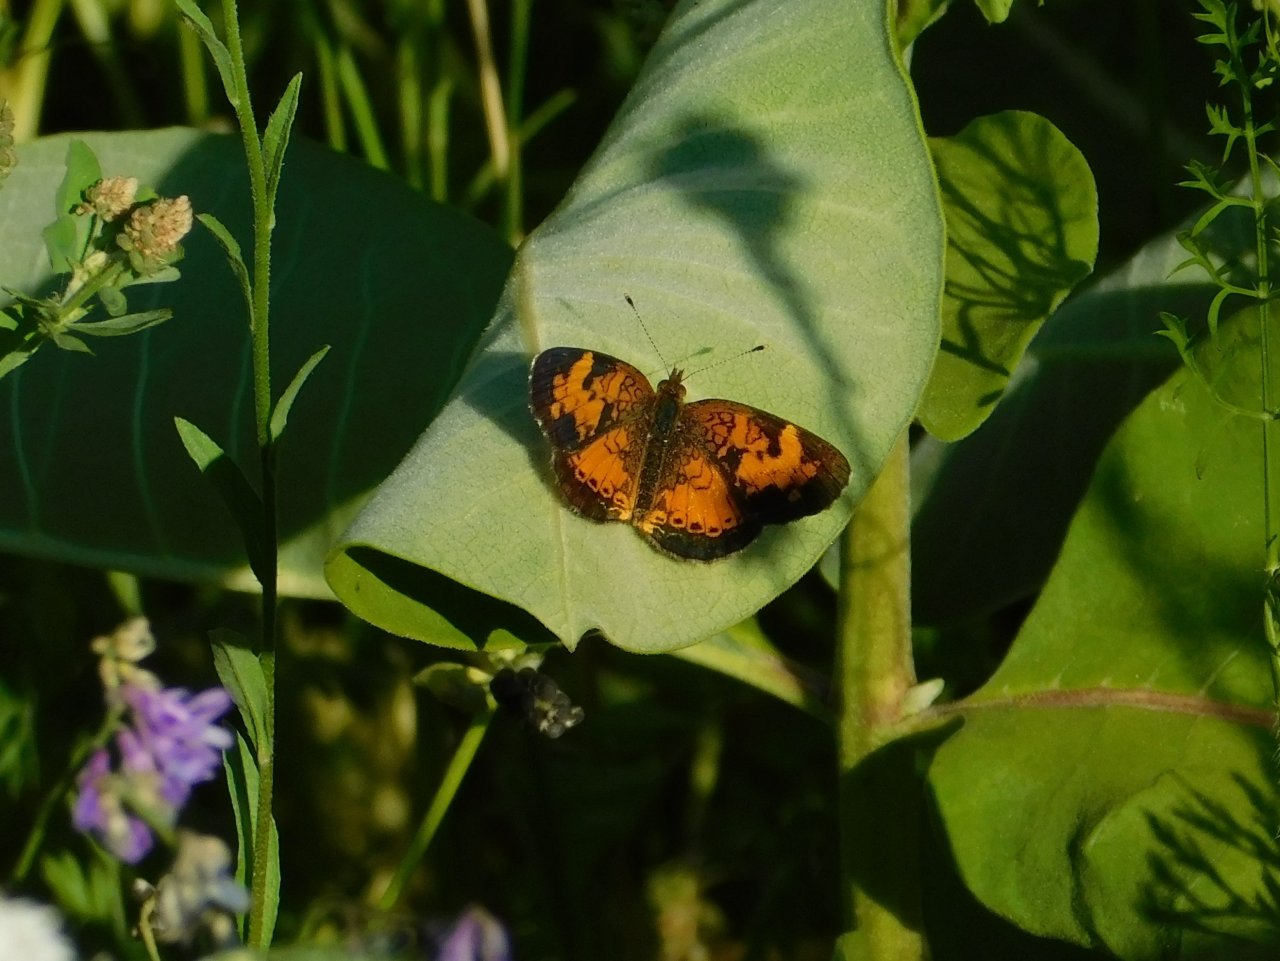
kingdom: Animalia
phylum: Arthropoda
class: Insecta
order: Lepidoptera
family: Nymphalidae
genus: Phyciodes
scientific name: Phyciodes tharos
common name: Northern Crescent
